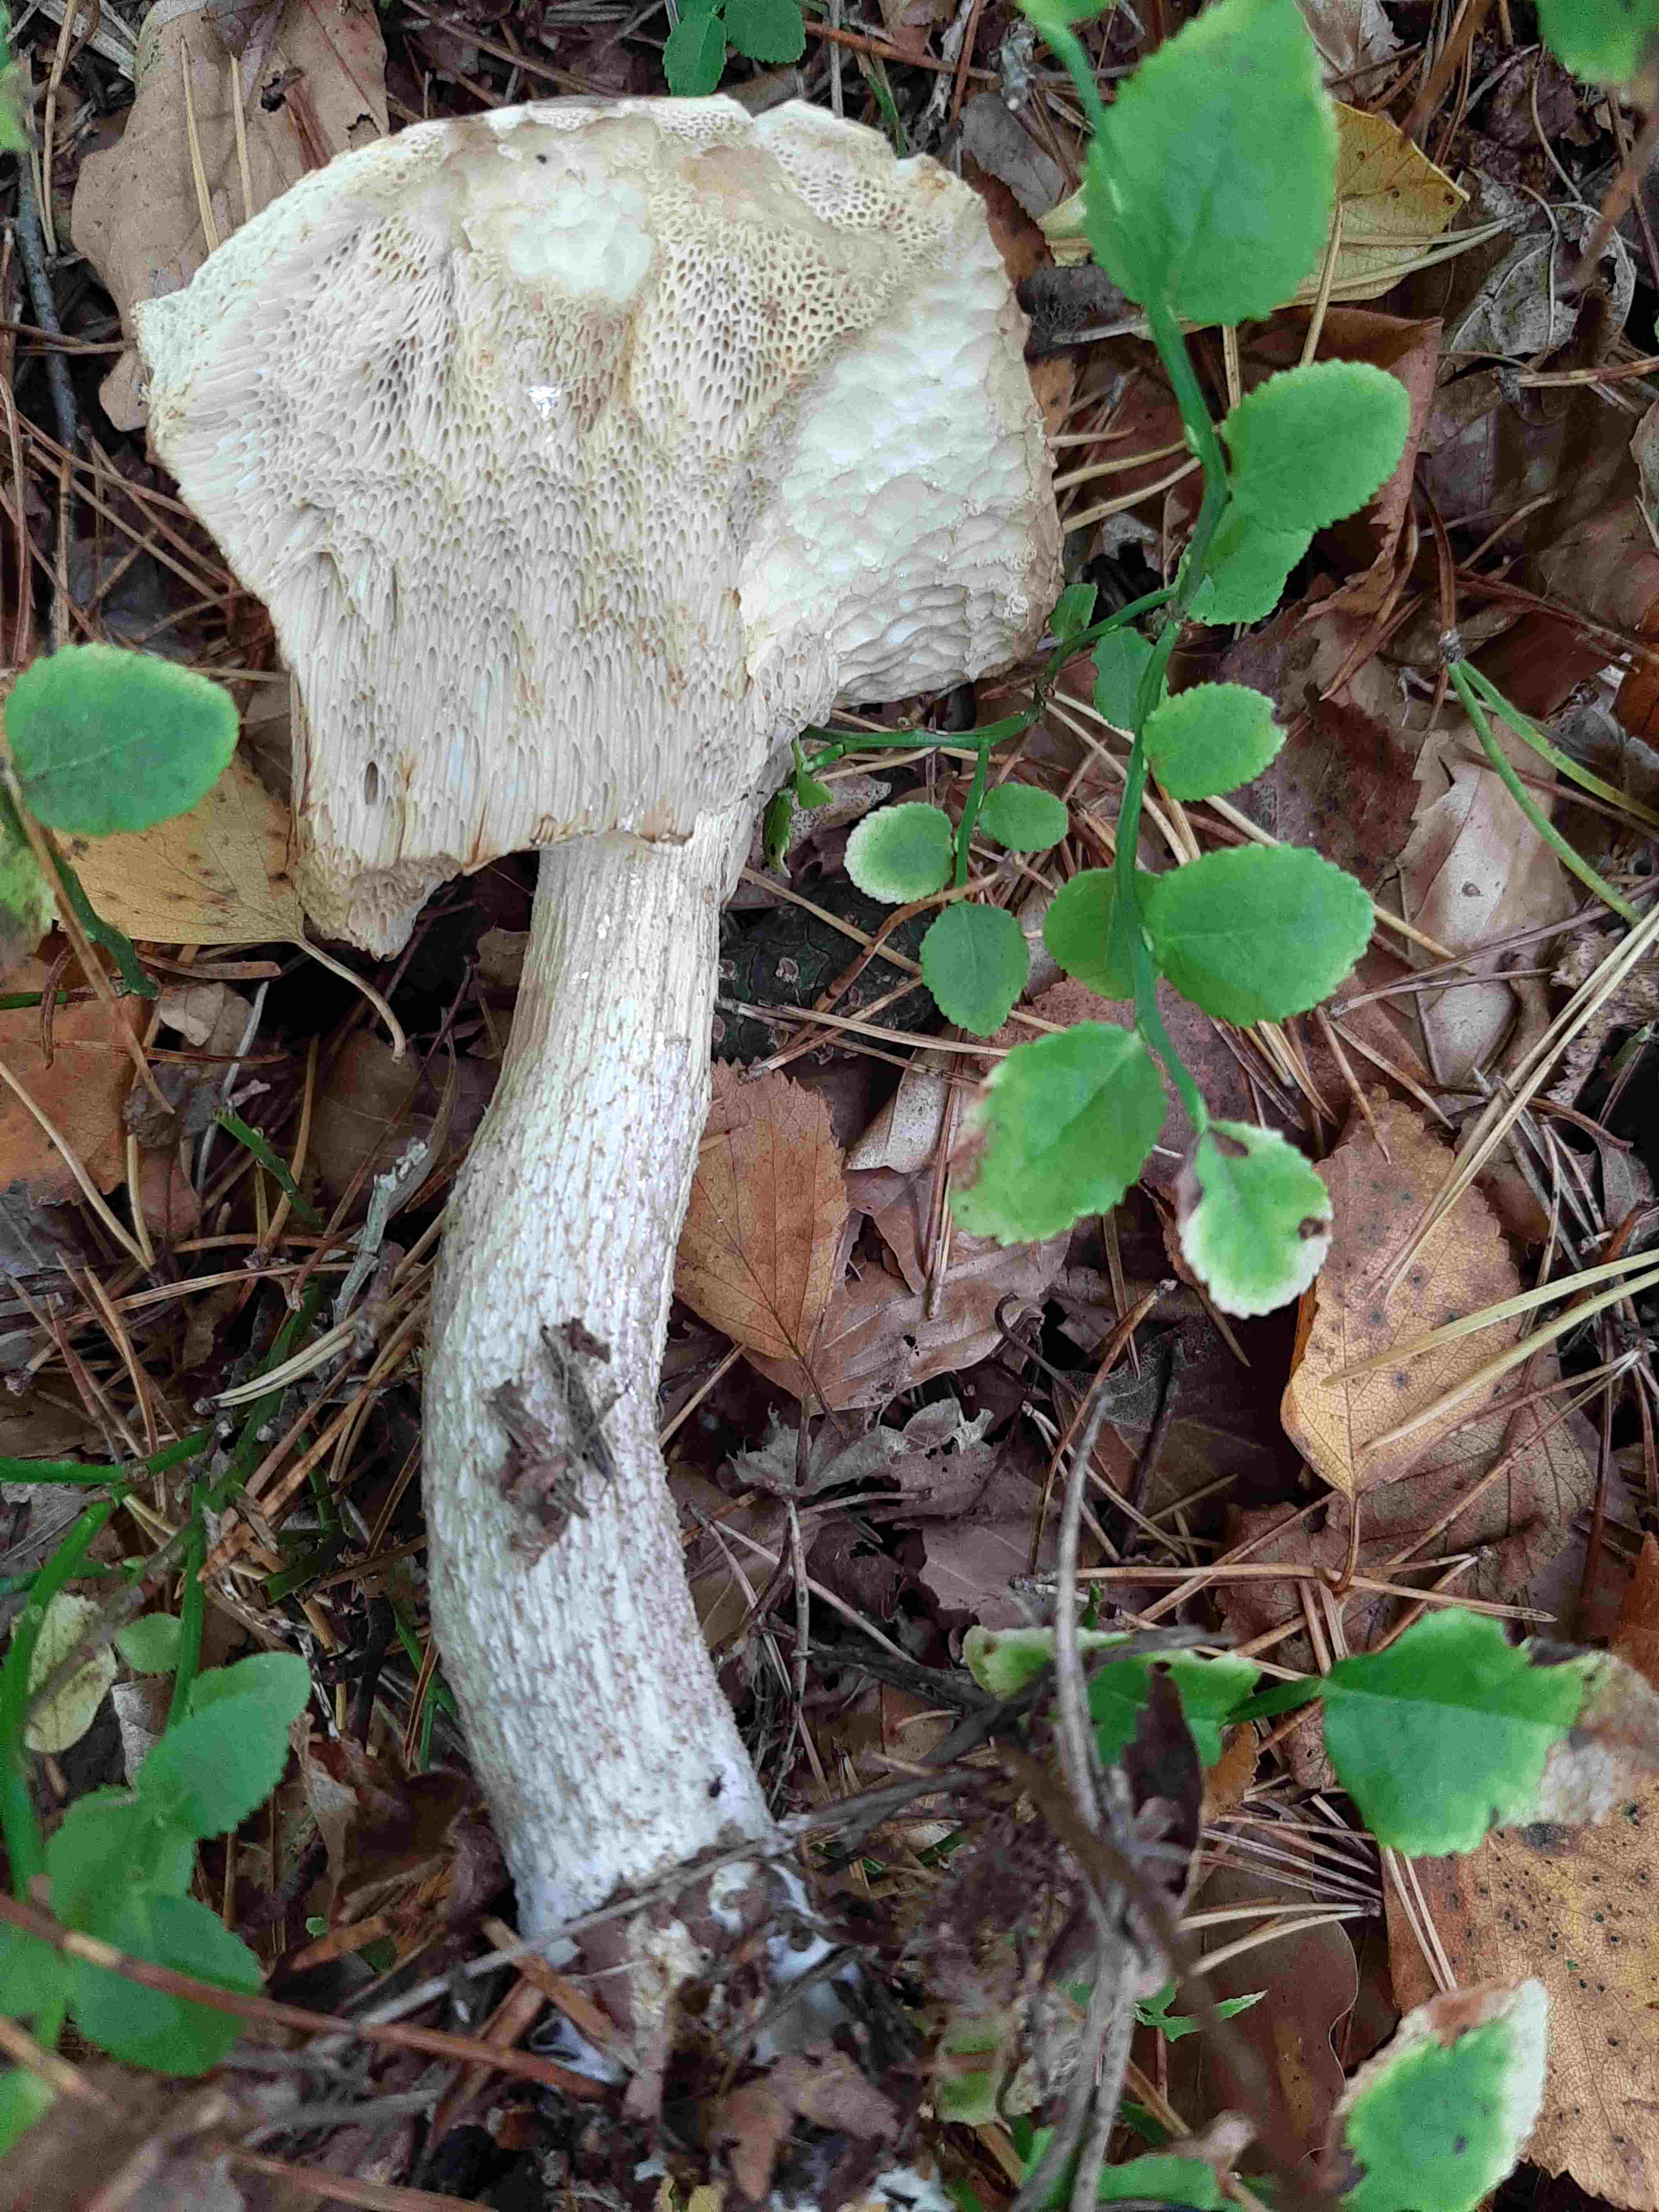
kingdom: Fungi
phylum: Basidiomycota
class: Agaricomycetes
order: Boletales
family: Boletaceae
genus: Leccinum
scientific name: Leccinum
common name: skælrørhat
